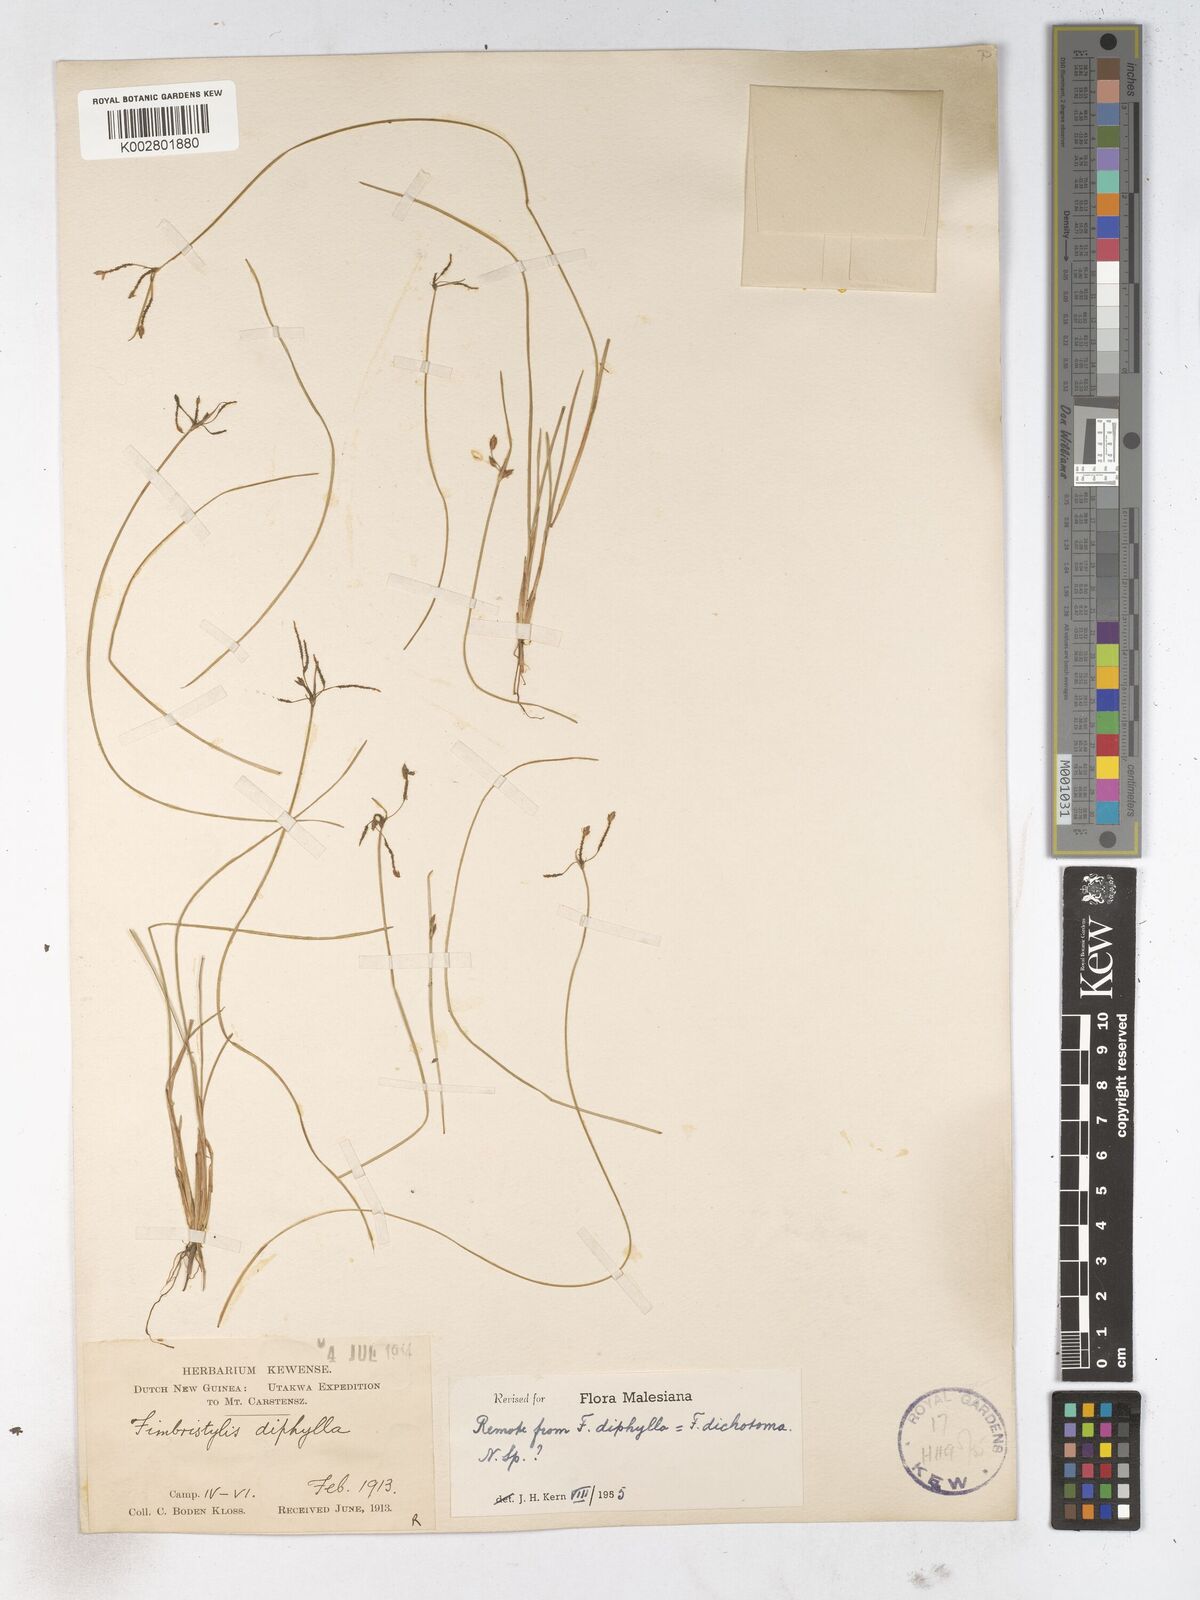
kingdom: Plantae
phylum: Tracheophyta
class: Liliopsida
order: Poales
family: Cyperaceae
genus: Fimbristylis
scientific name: Fimbristylis dichotoma
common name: Forked fimbry
